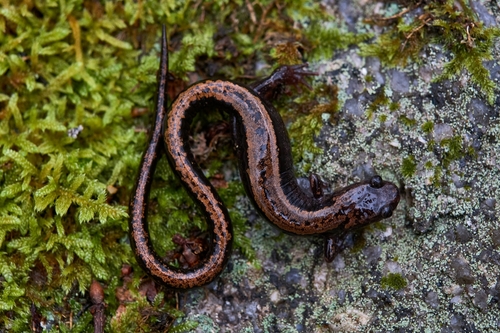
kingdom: Animalia
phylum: Chordata
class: Amphibia
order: Caudata
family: Salamandridae
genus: Chioglossa
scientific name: Chioglossa lusitanica
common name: Gold-striped salamander
